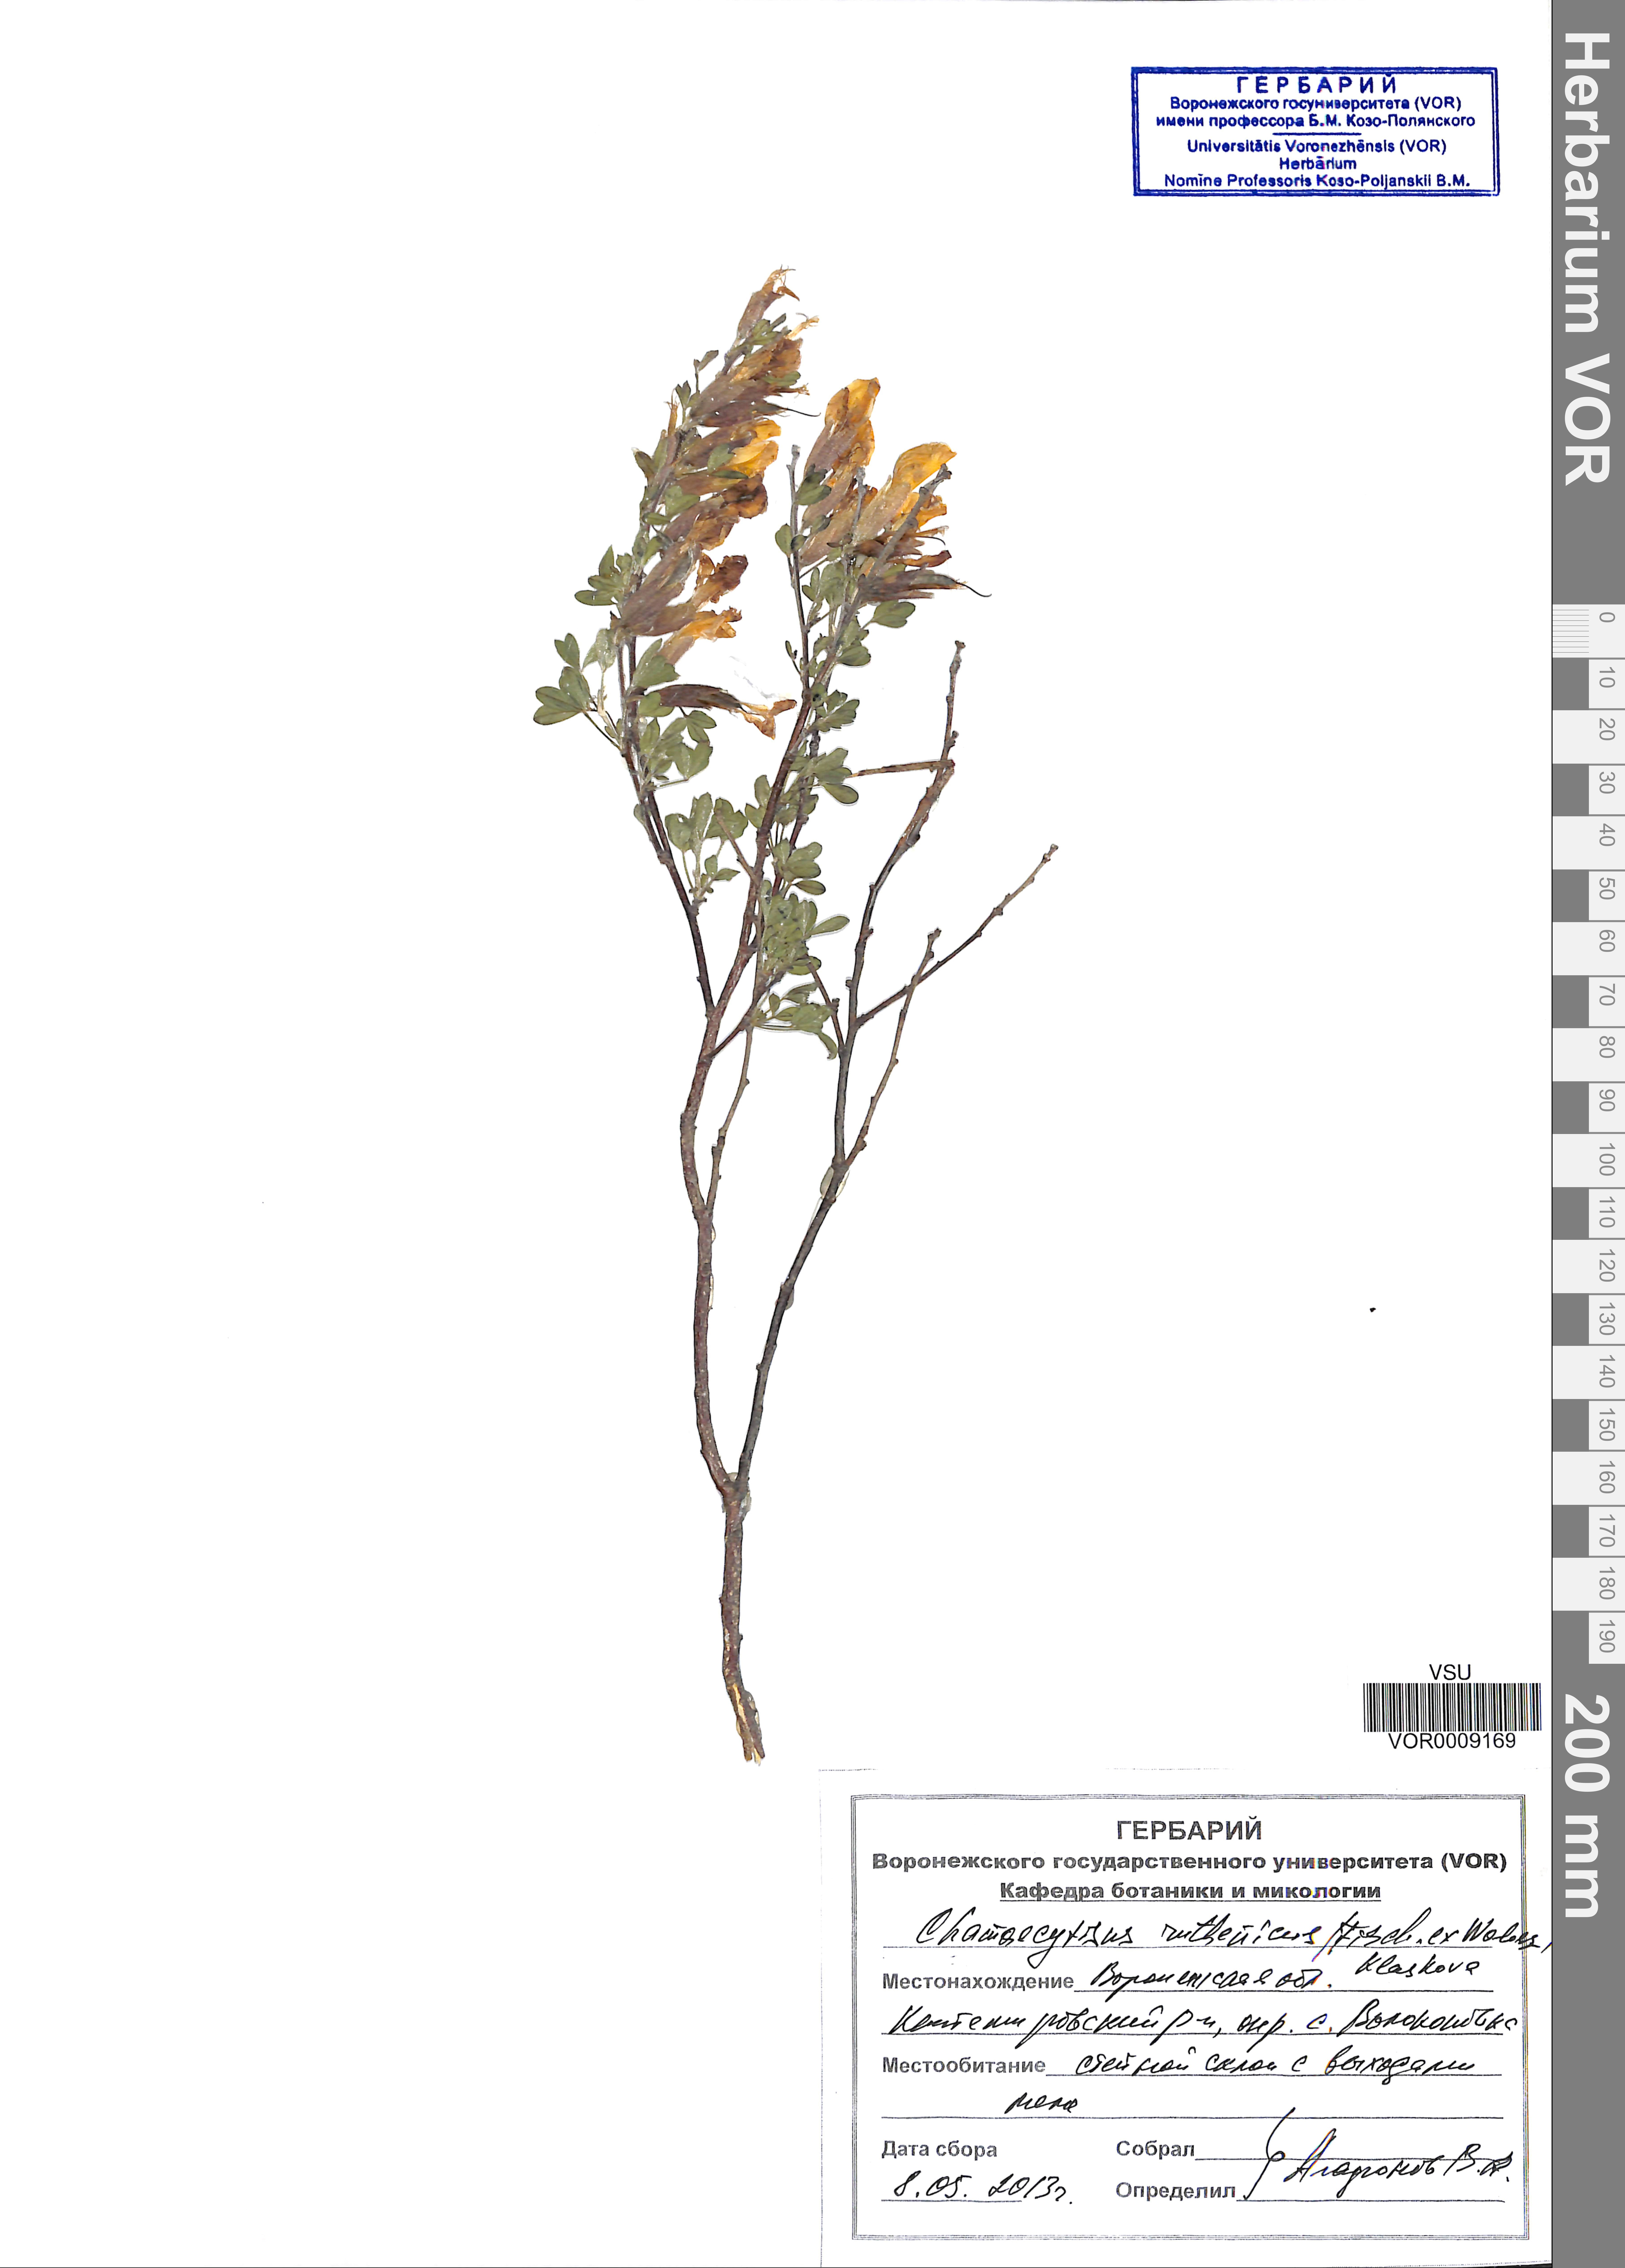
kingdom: Plantae
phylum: Tracheophyta
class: Magnoliopsida
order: Fabales
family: Fabaceae
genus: Chamaecytisus
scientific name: Chamaecytisus ruthenicus
